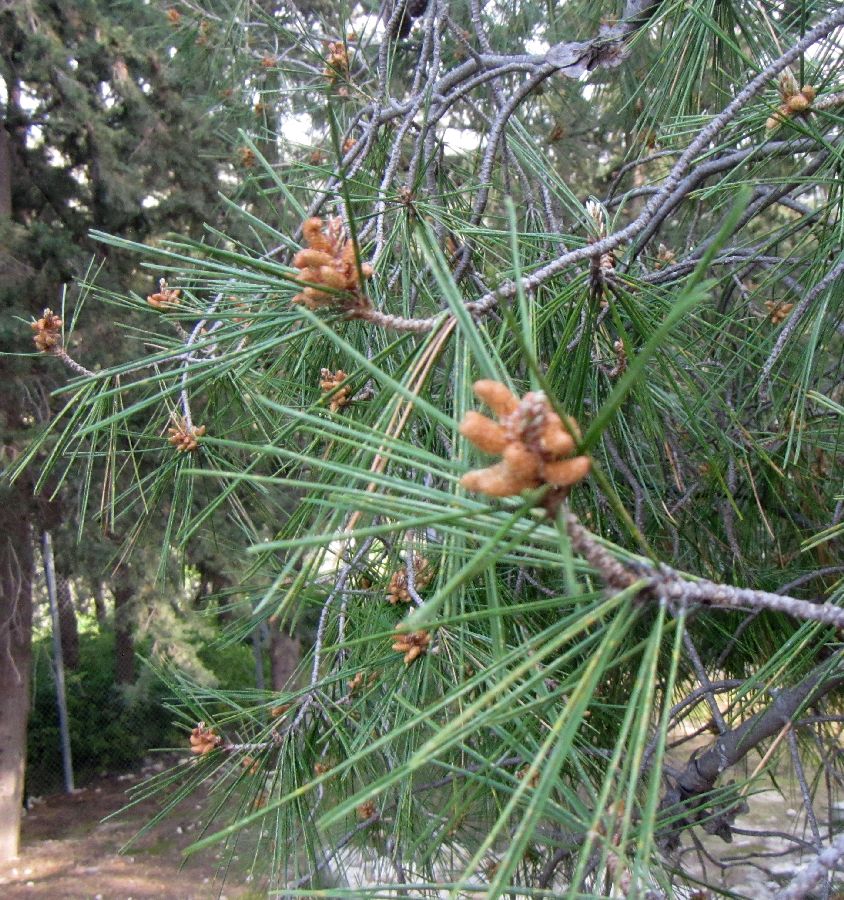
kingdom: Plantae
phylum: Tracheophyta
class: Pinopsida
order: Pinales
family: Pinaceae
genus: Pinus
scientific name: Pinus halepensis
